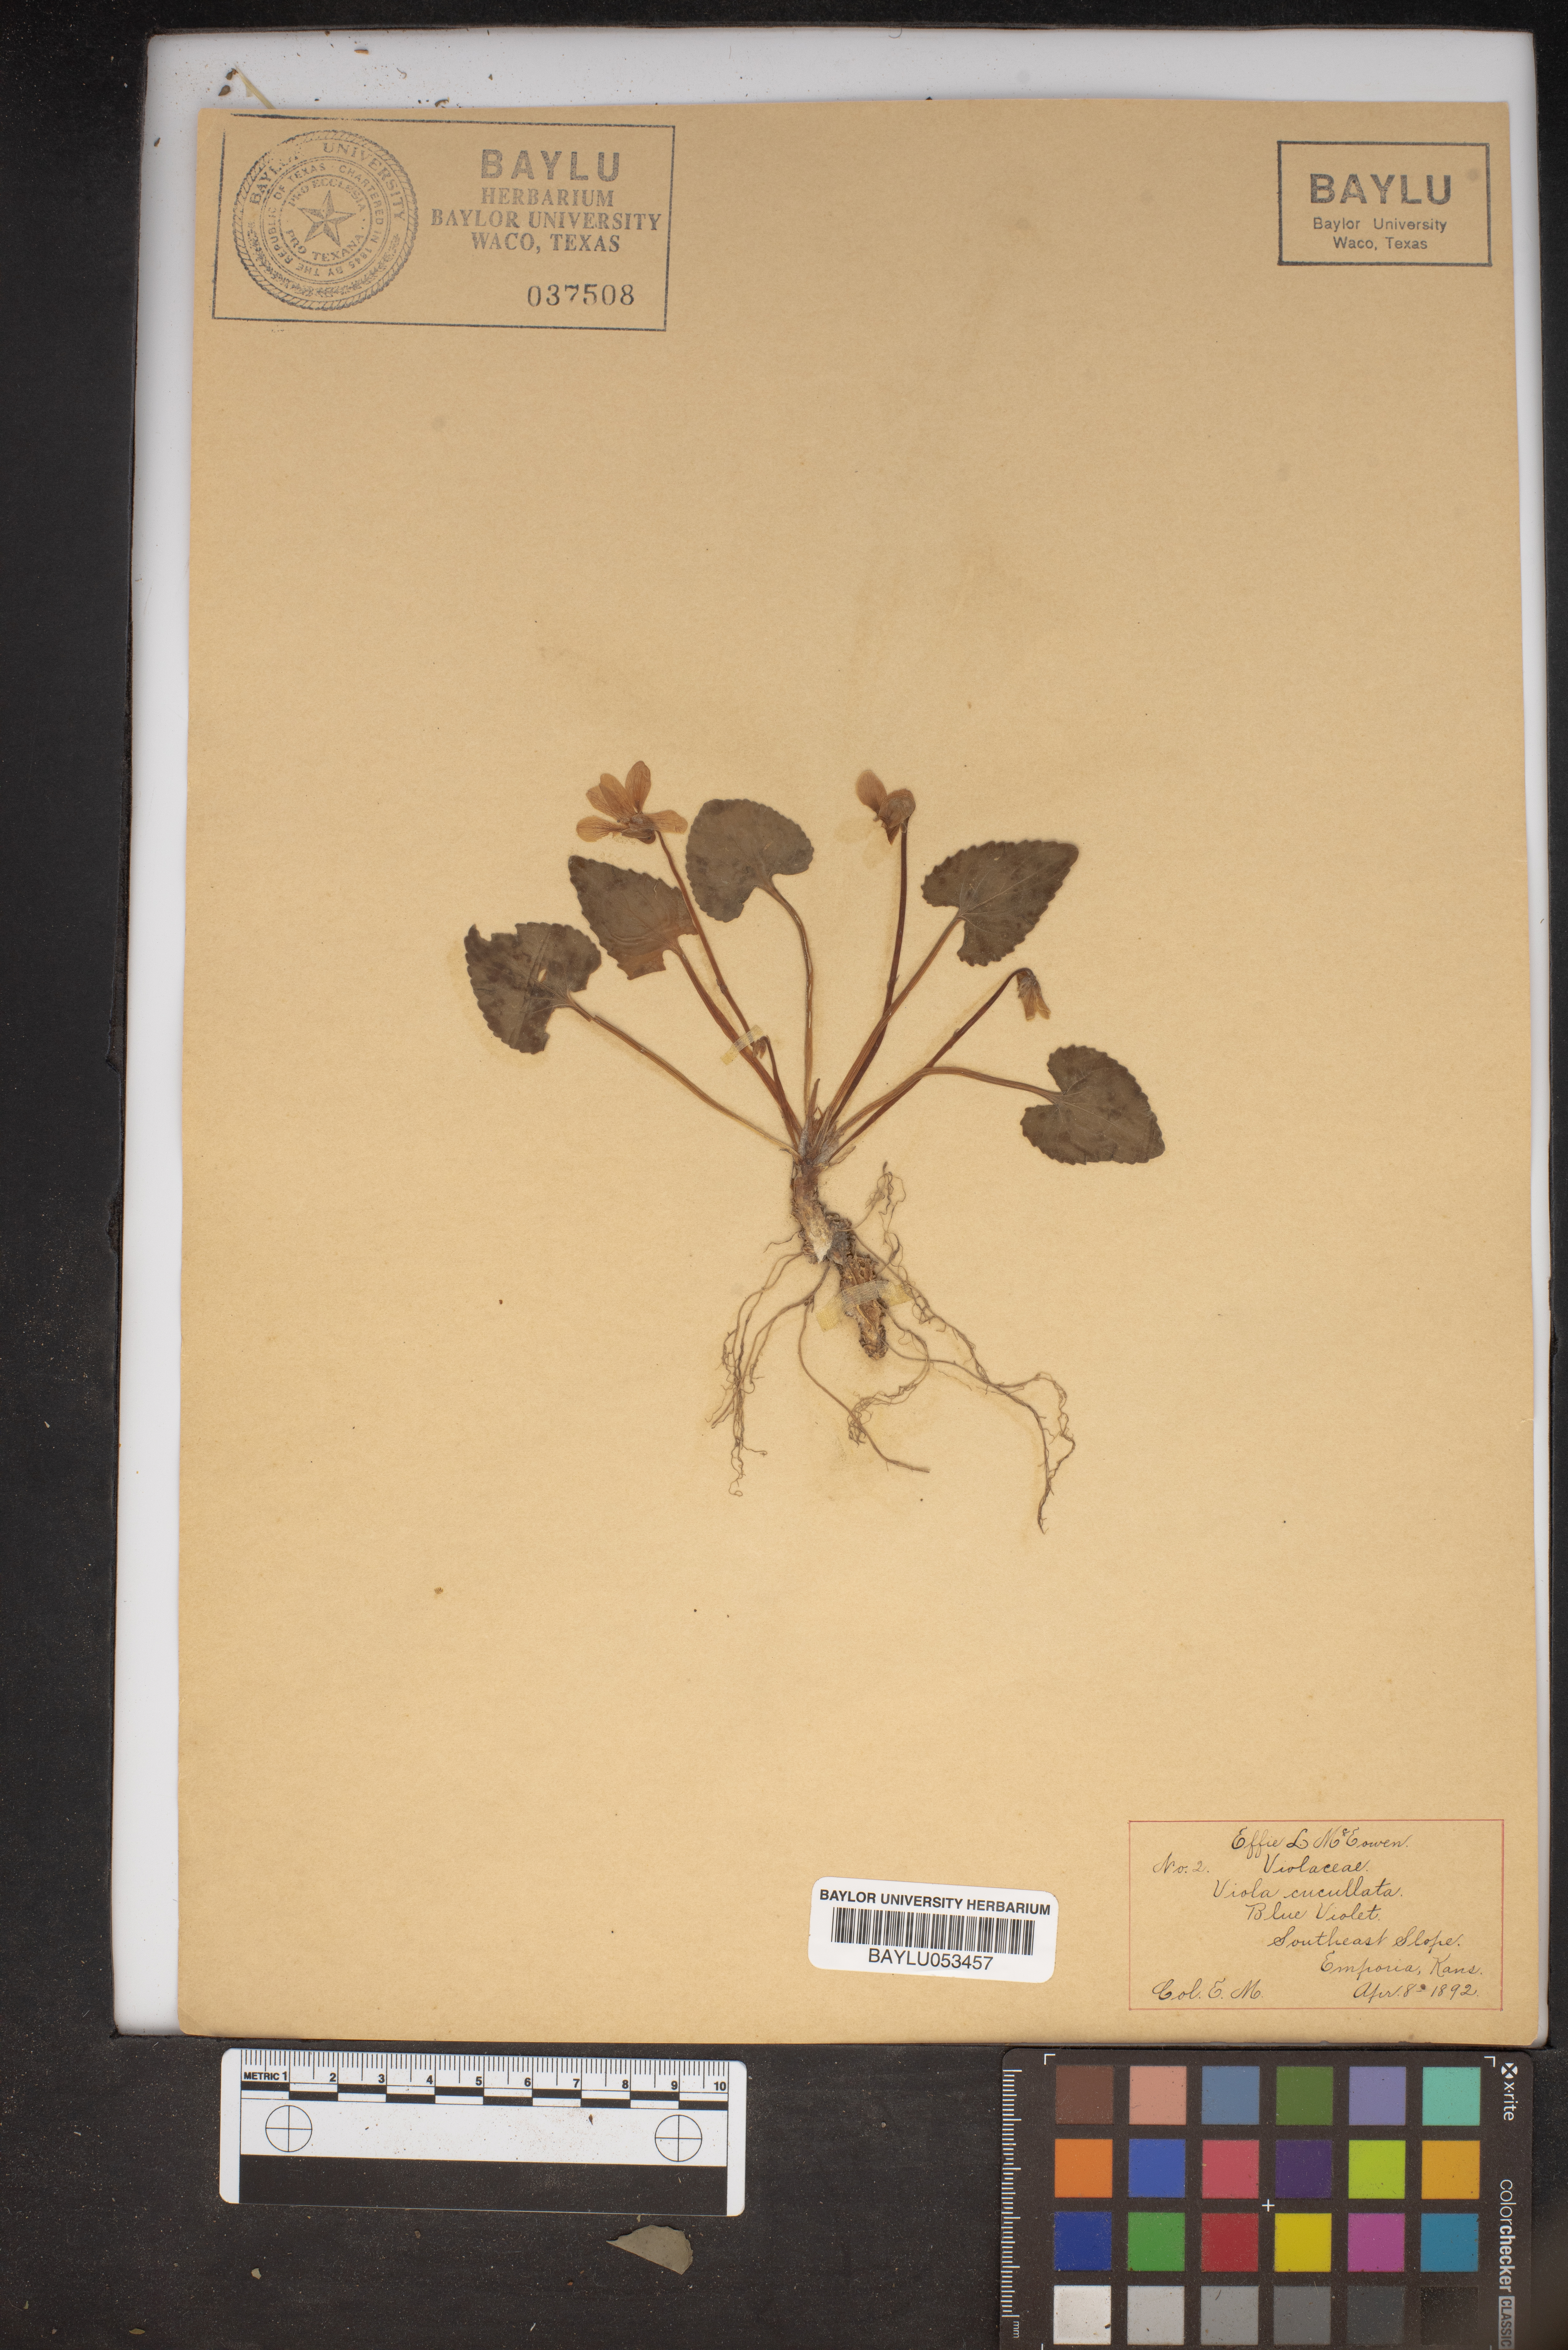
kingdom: Plantae
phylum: Tracheophyta
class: Magnoliopsida
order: Malpighiales
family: Violaceae
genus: Viola
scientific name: Viola cucullata
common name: Marsh blue violet
